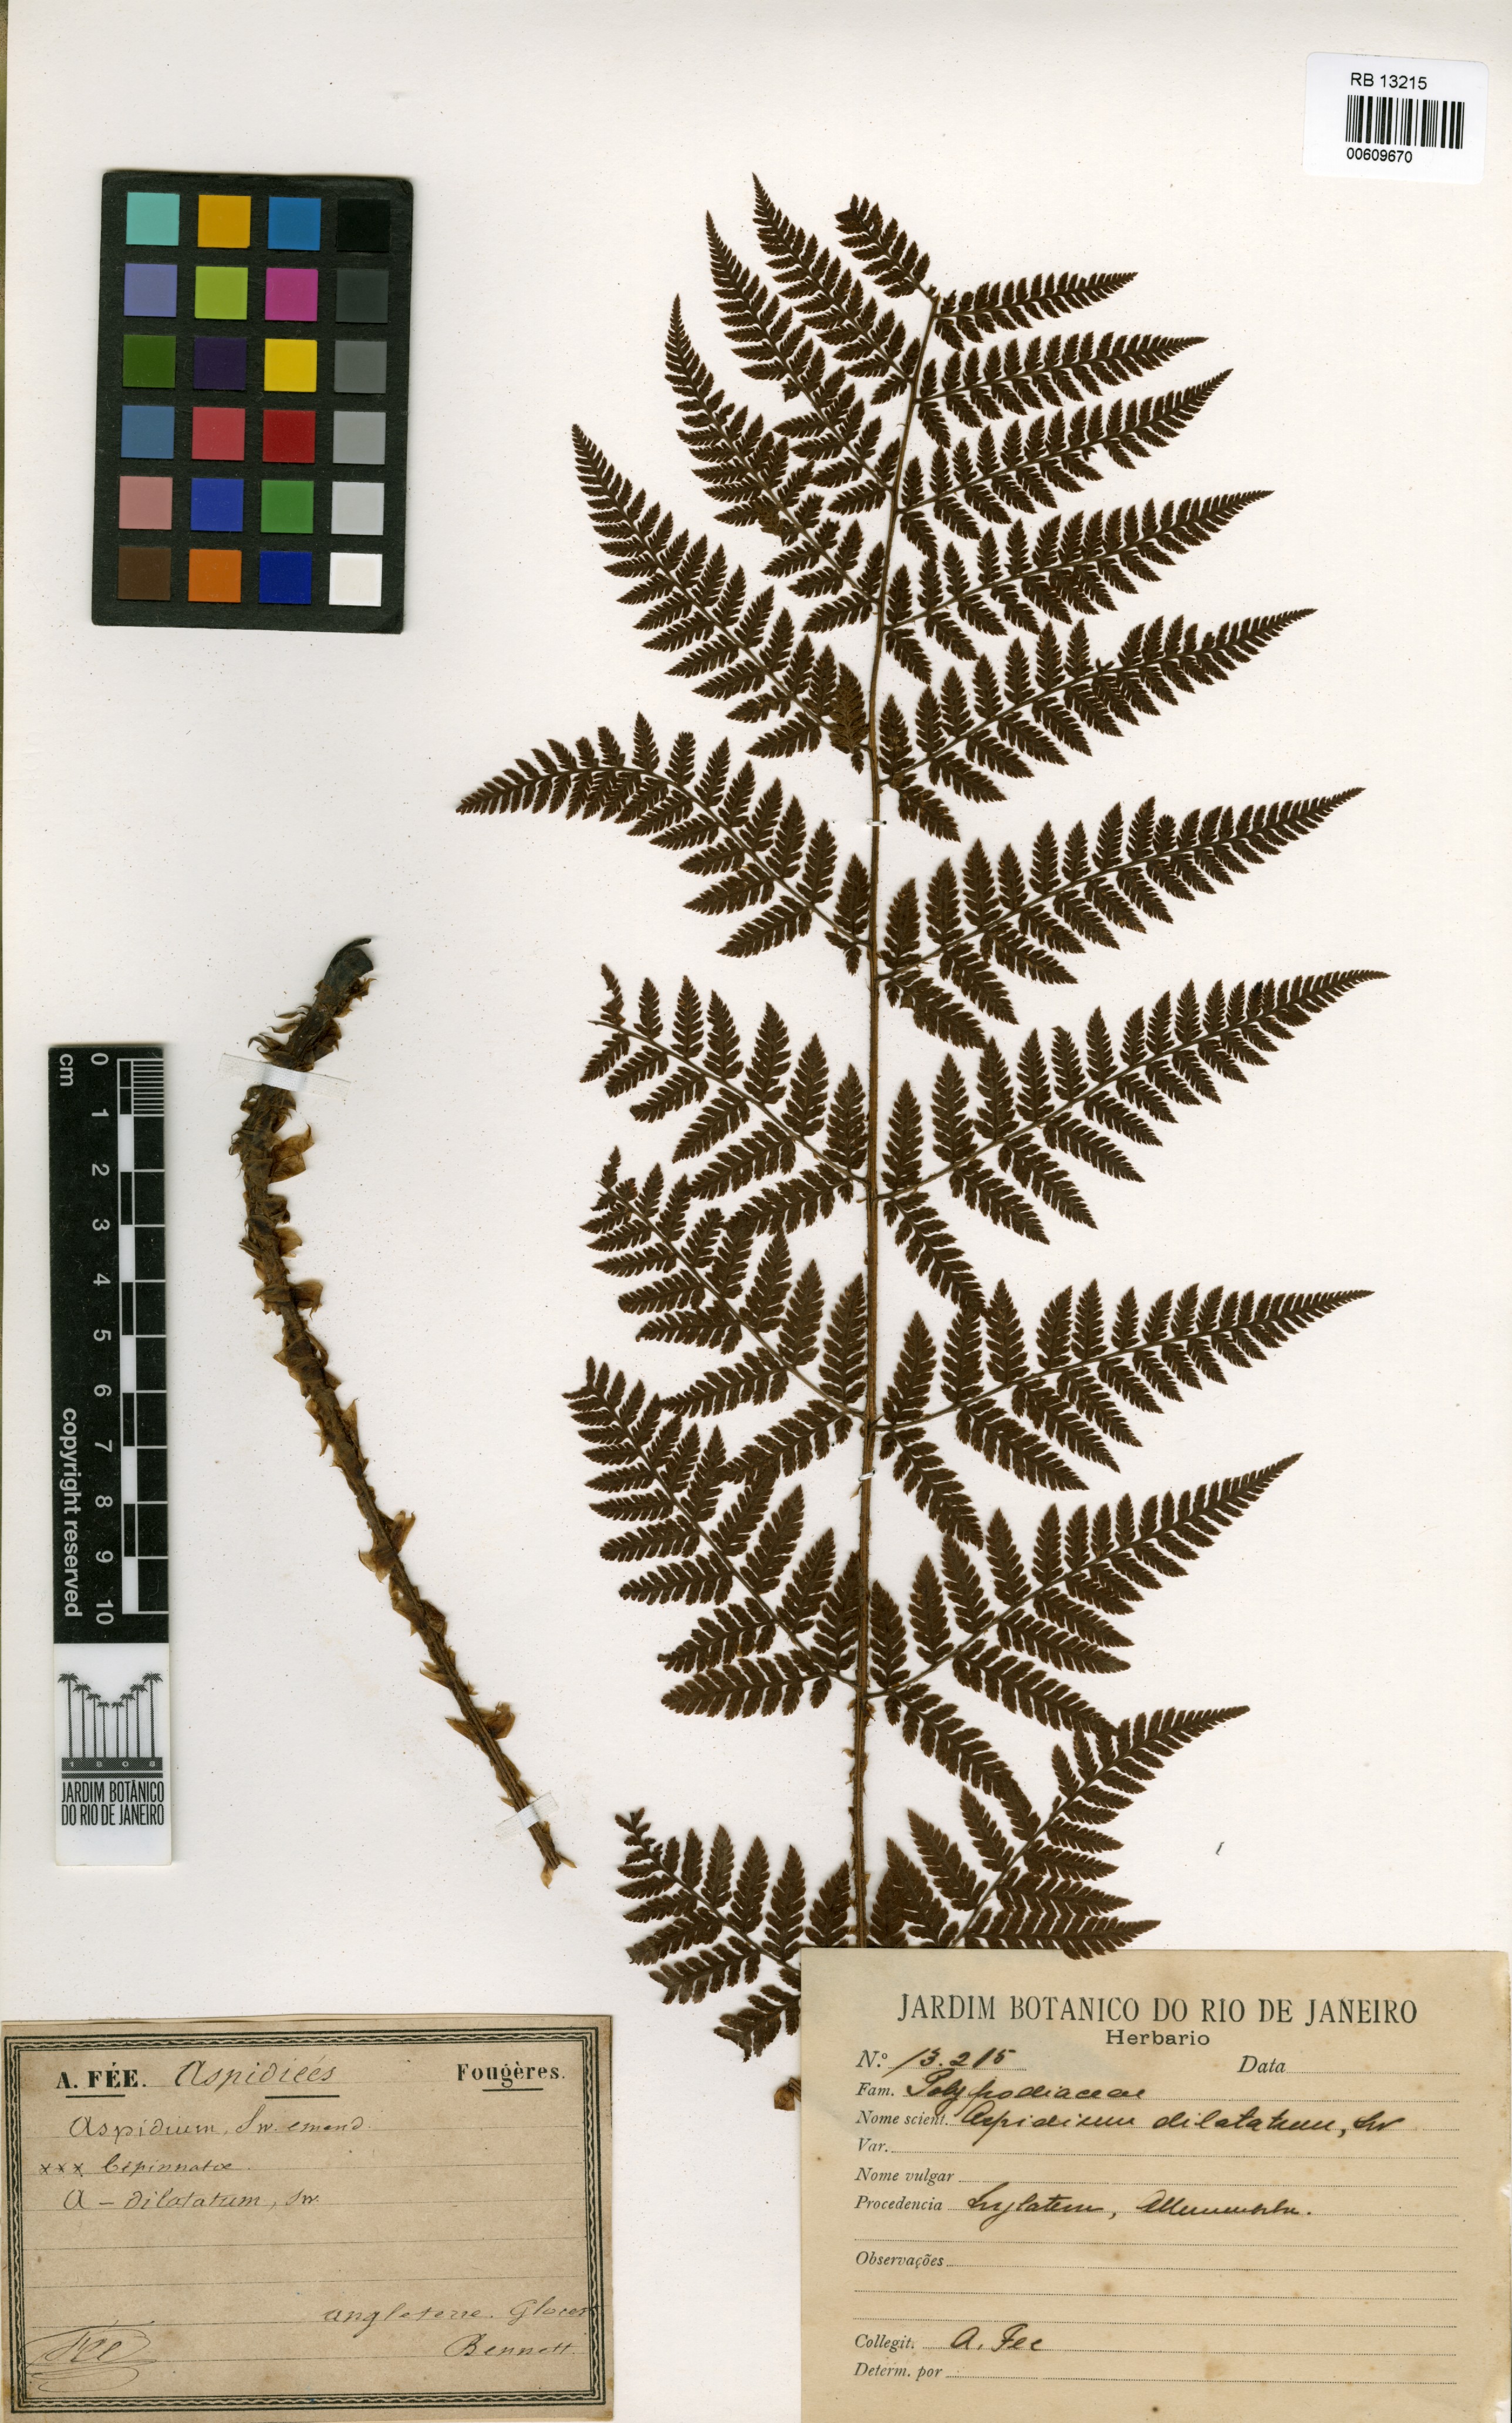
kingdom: Plantae
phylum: Tracheophyta
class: Polypodiopsida
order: Polypodiales
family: Dryopteridaceae
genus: Dryopteris
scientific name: Dryopteris dilatata
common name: Broad buckler-fern
